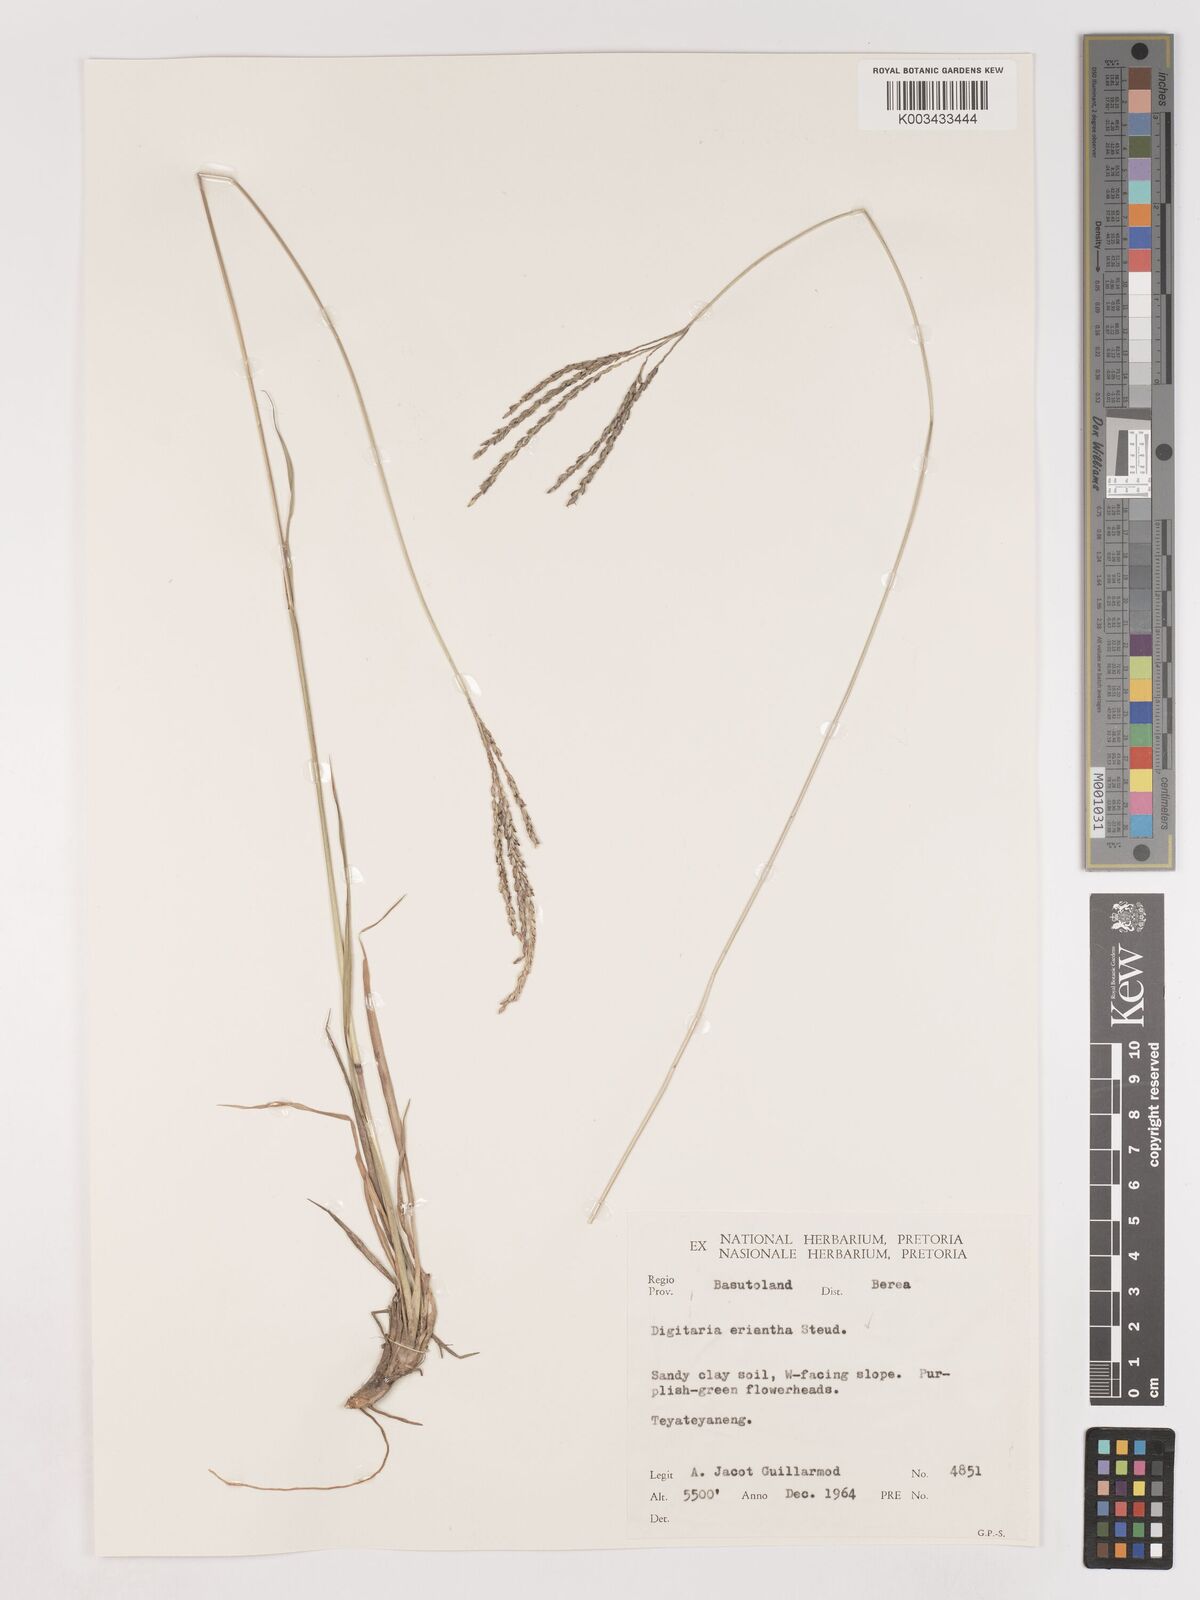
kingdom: Plantae
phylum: Tracheophyta
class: Liliopsida
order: Poales
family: Poaceae
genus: Digitaria
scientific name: Digitaria eriantha
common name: Digitgrass
